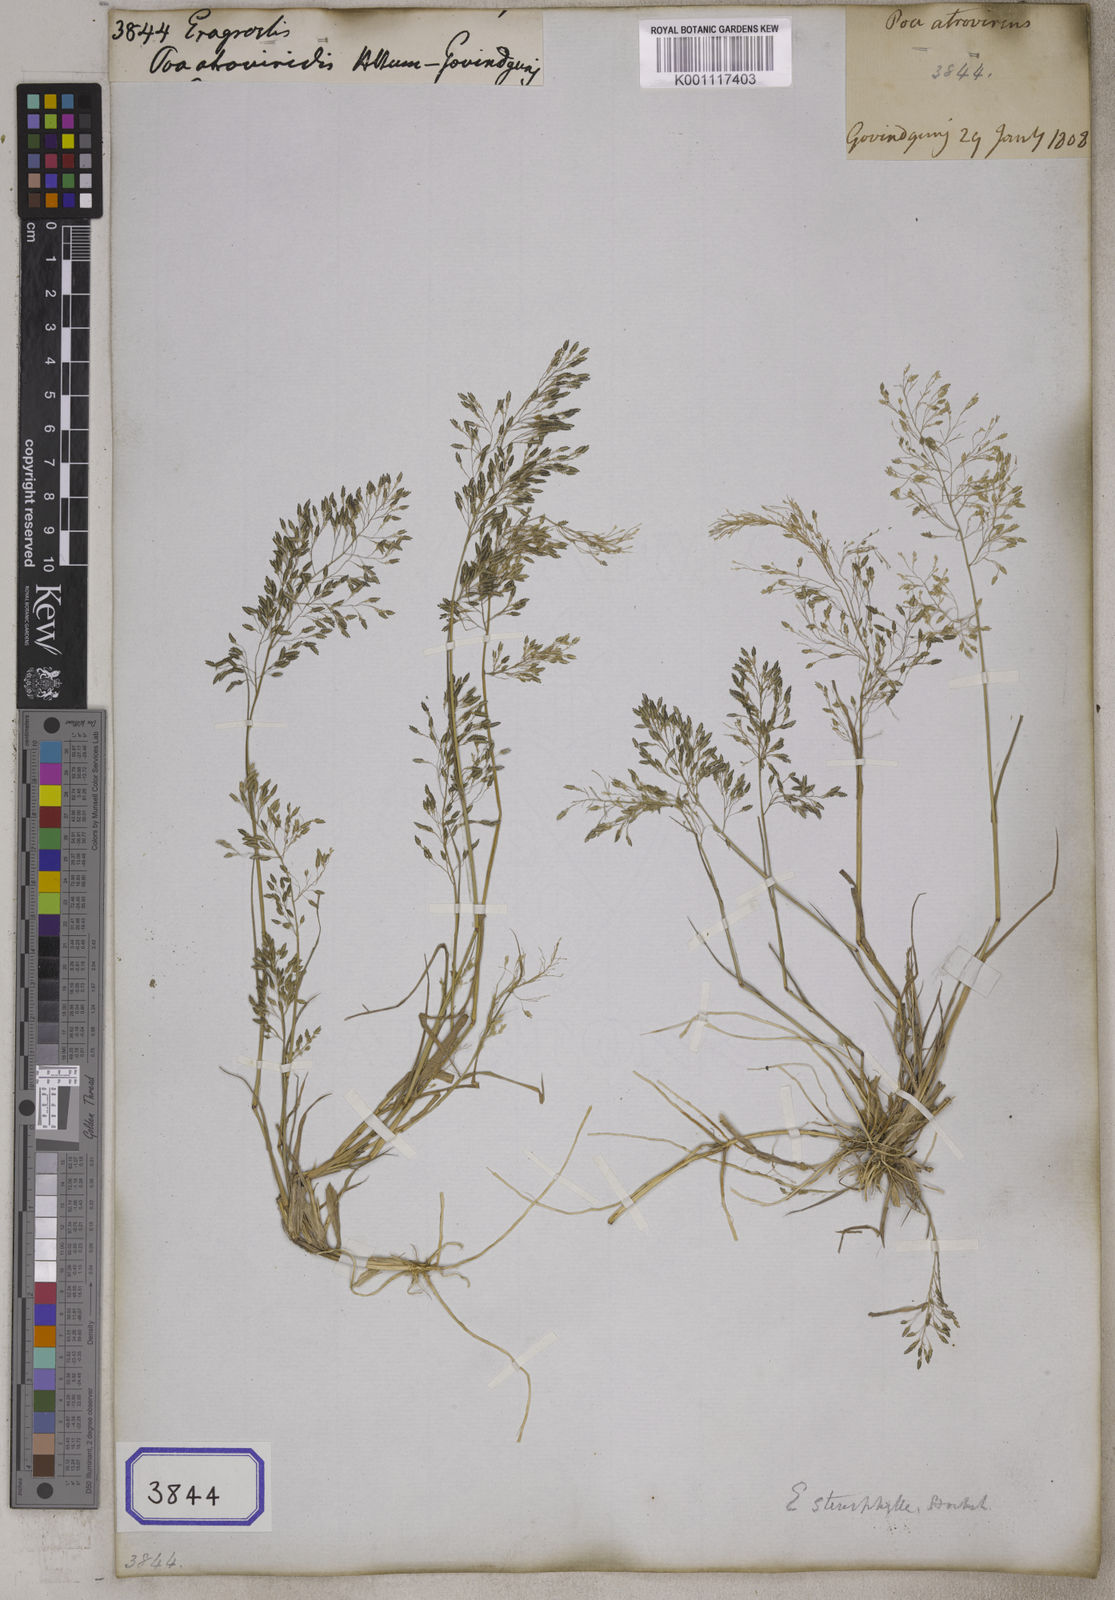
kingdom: Plantae
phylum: Tracheophyta
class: Liliopsida
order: Poales
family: Poaceae
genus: Eragrostis
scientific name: Eragrostis
